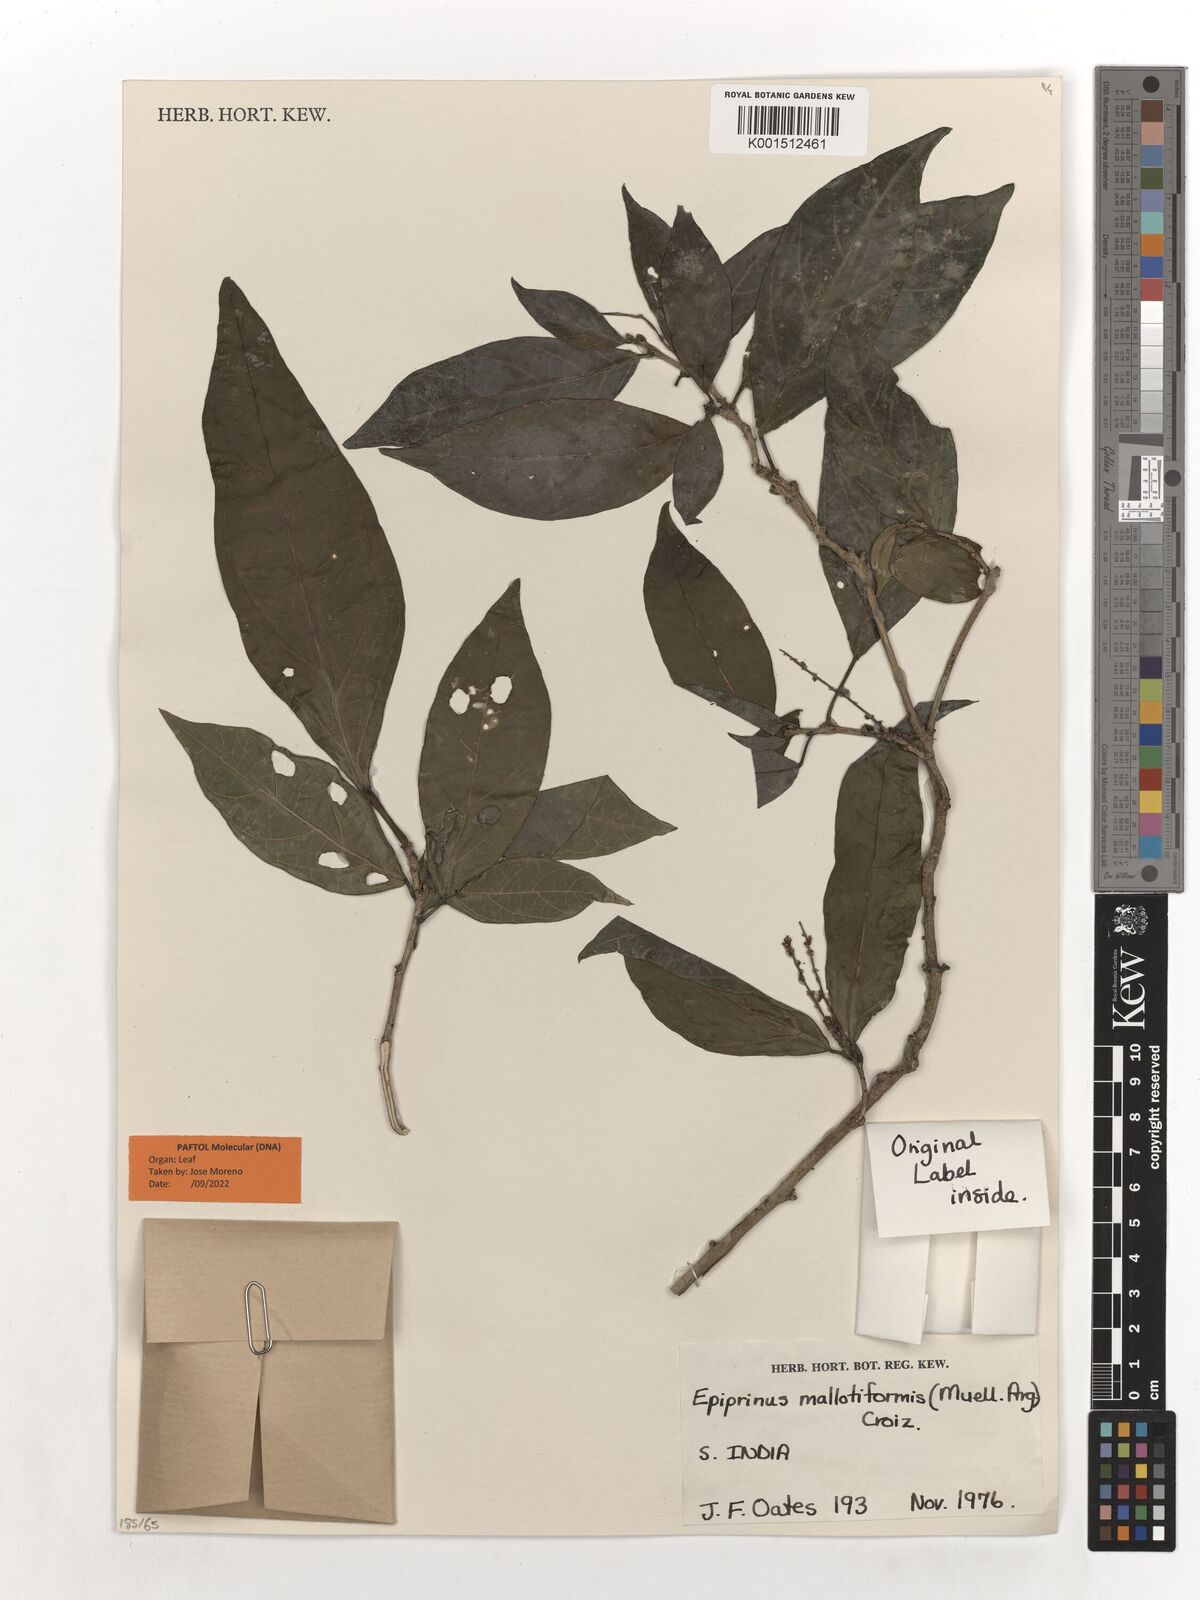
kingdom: Plantae
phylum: Tracheophyta
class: Magnoliopsida
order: Malpighiales
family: Euphorbiaceae
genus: Epiprinus
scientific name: Epiprinus mallotiformis
